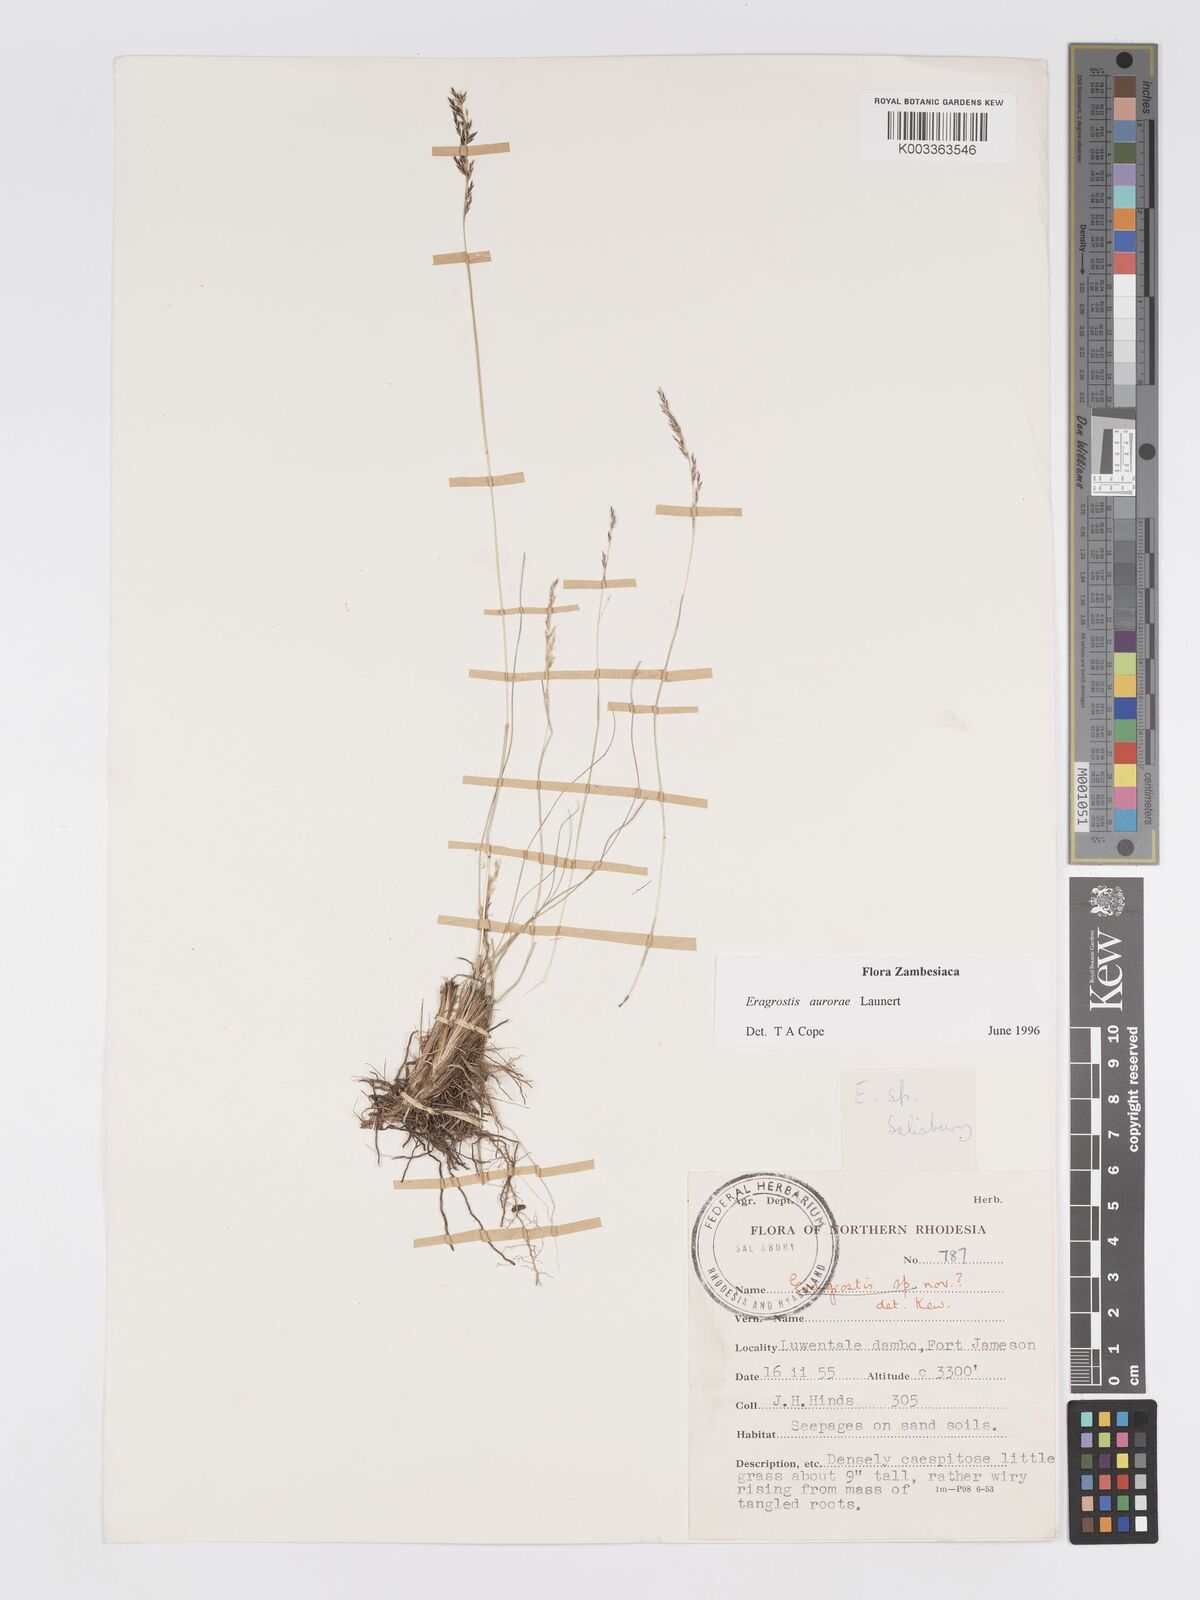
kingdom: Plantae
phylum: Tracheophyta
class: Liliopsida
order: Poales
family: Poaceae
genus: Eragrostis
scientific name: Eragrostis aurorae
